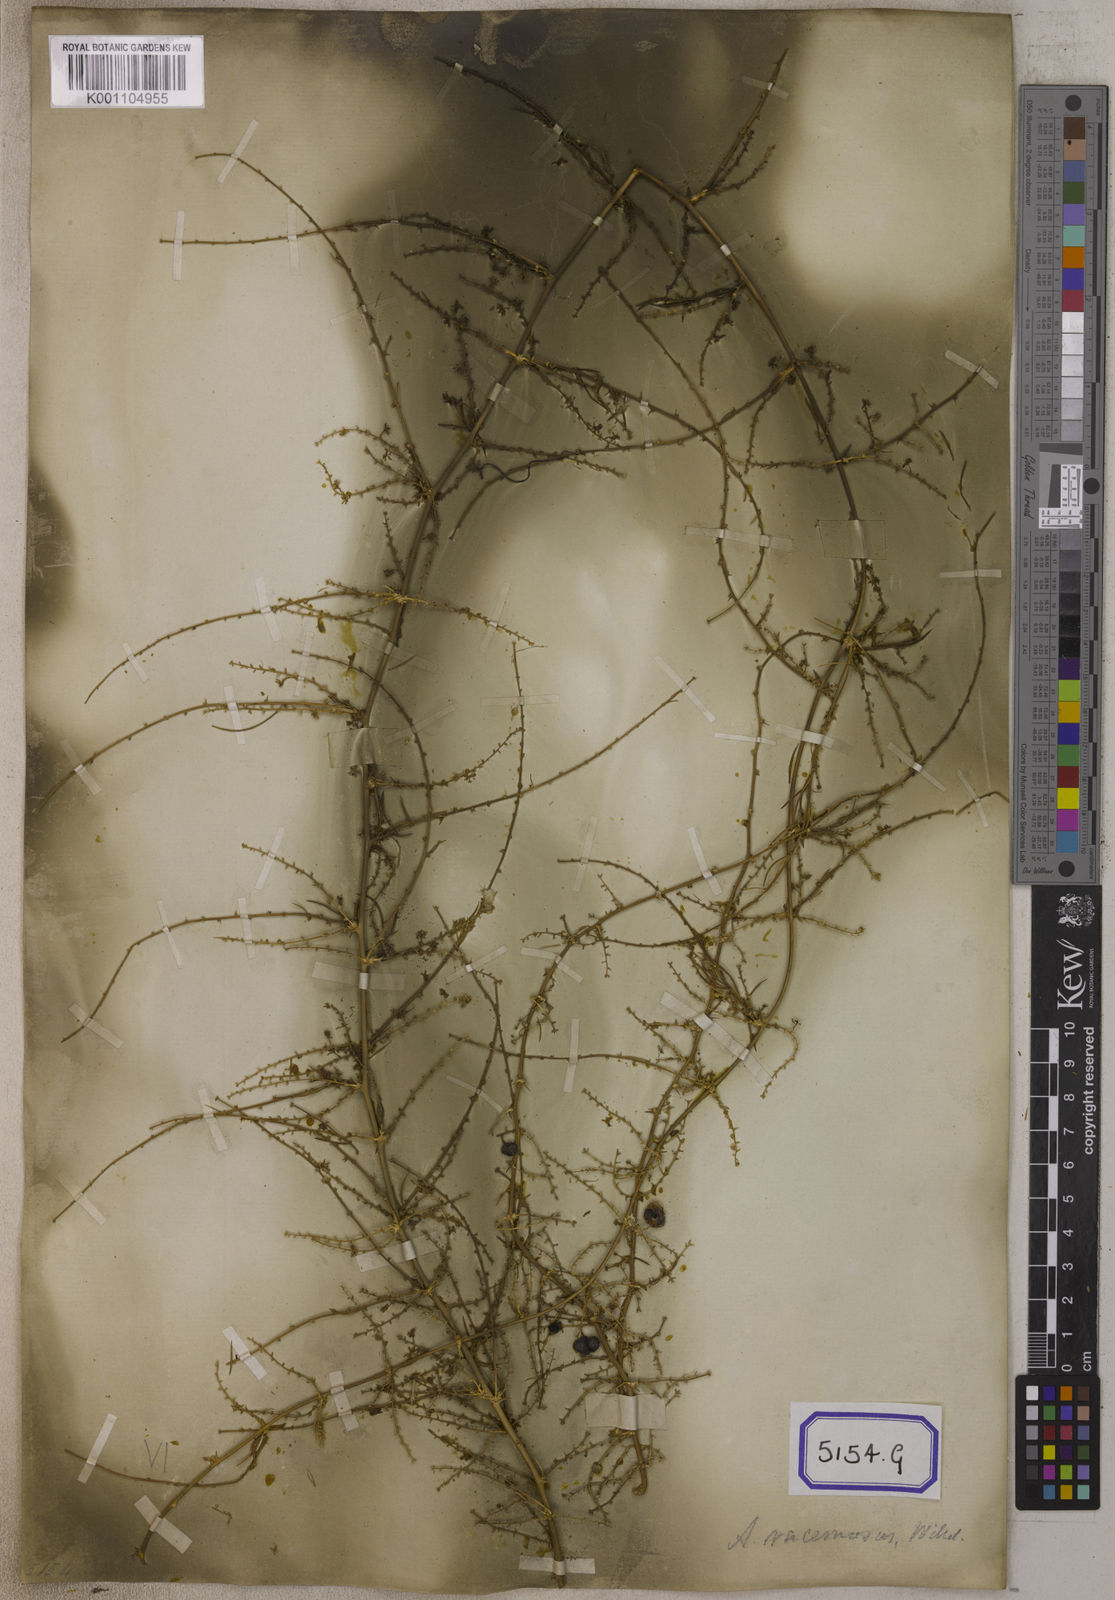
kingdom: Plantae
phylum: Tracheophyta
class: Liliopsida
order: Asparagales
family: Asparagaceae
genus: Asparagus
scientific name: Asparagus
